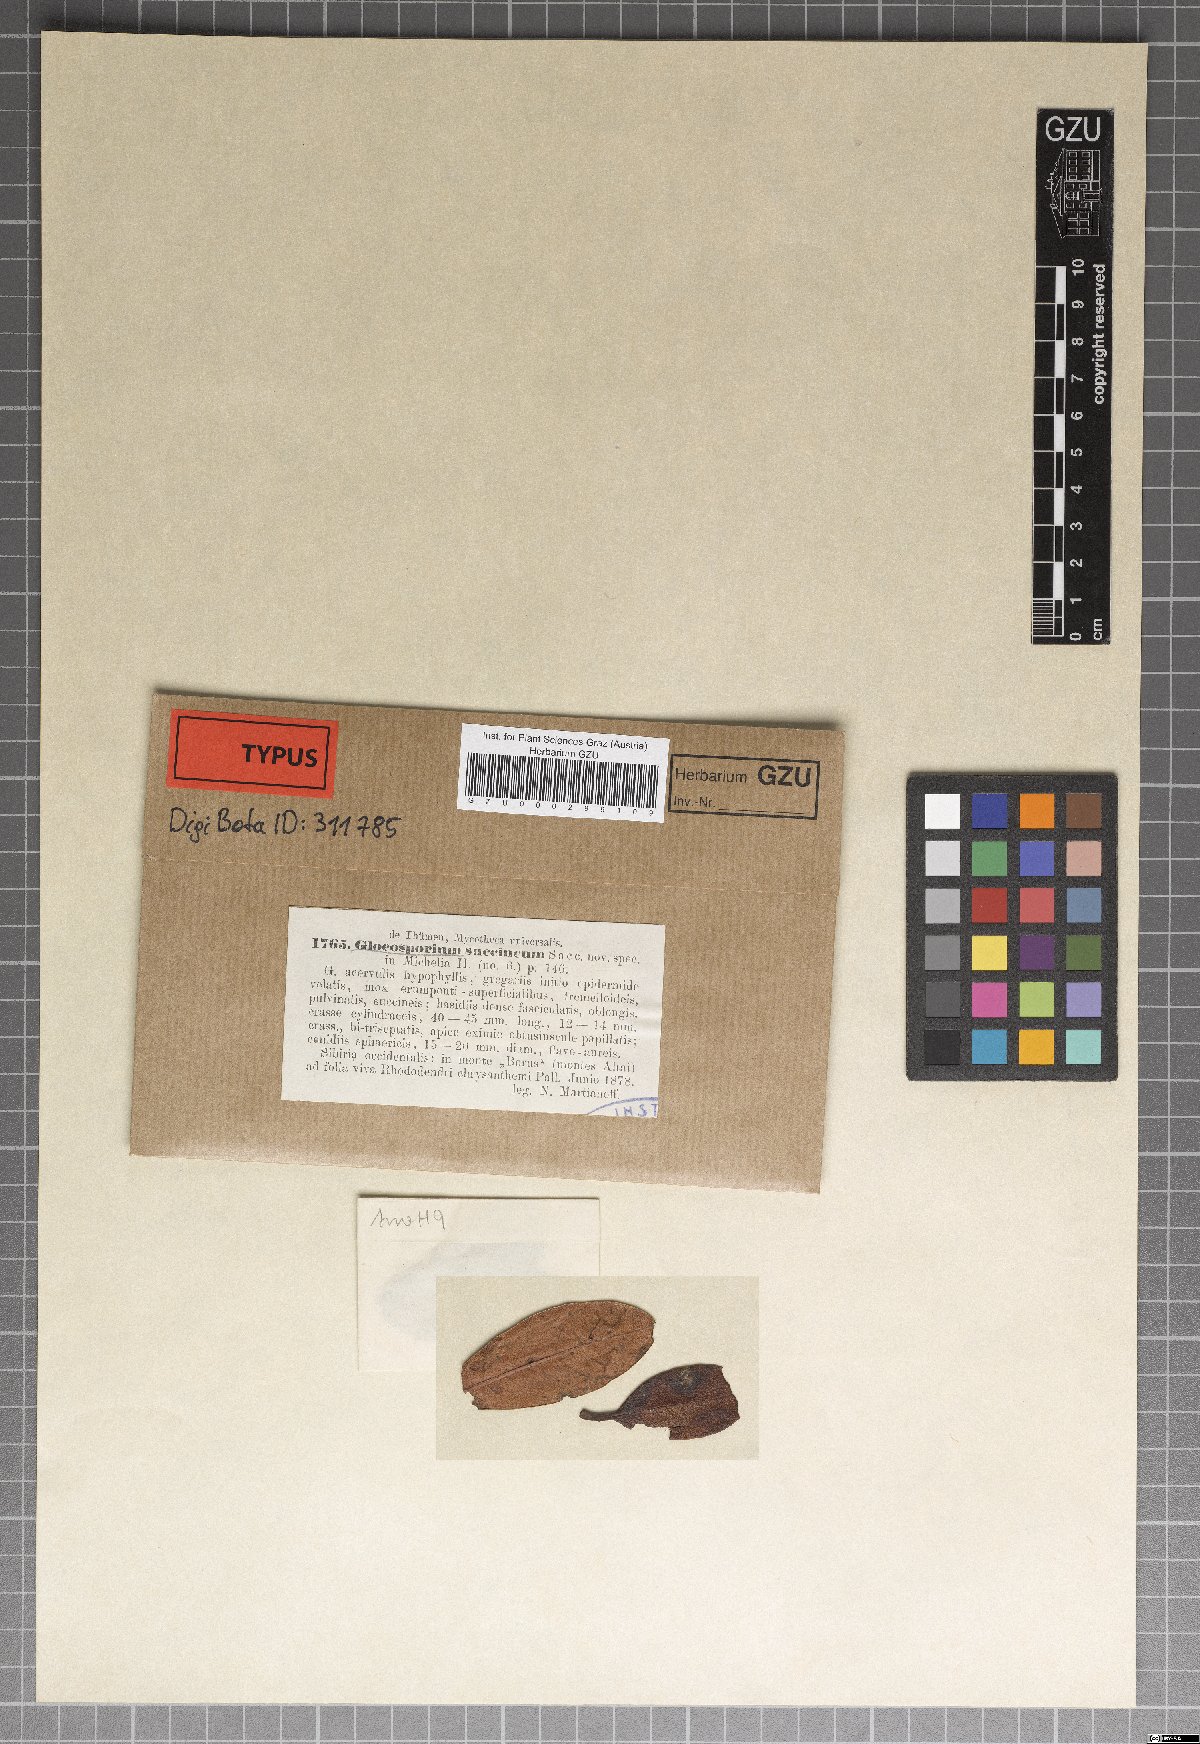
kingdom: Fungi
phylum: Basidiomycota
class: Pucciniomycetes
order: Pucciniales
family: Coleosporiaceae
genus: Chrysomyxa
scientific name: Chrysomyxa succinea
